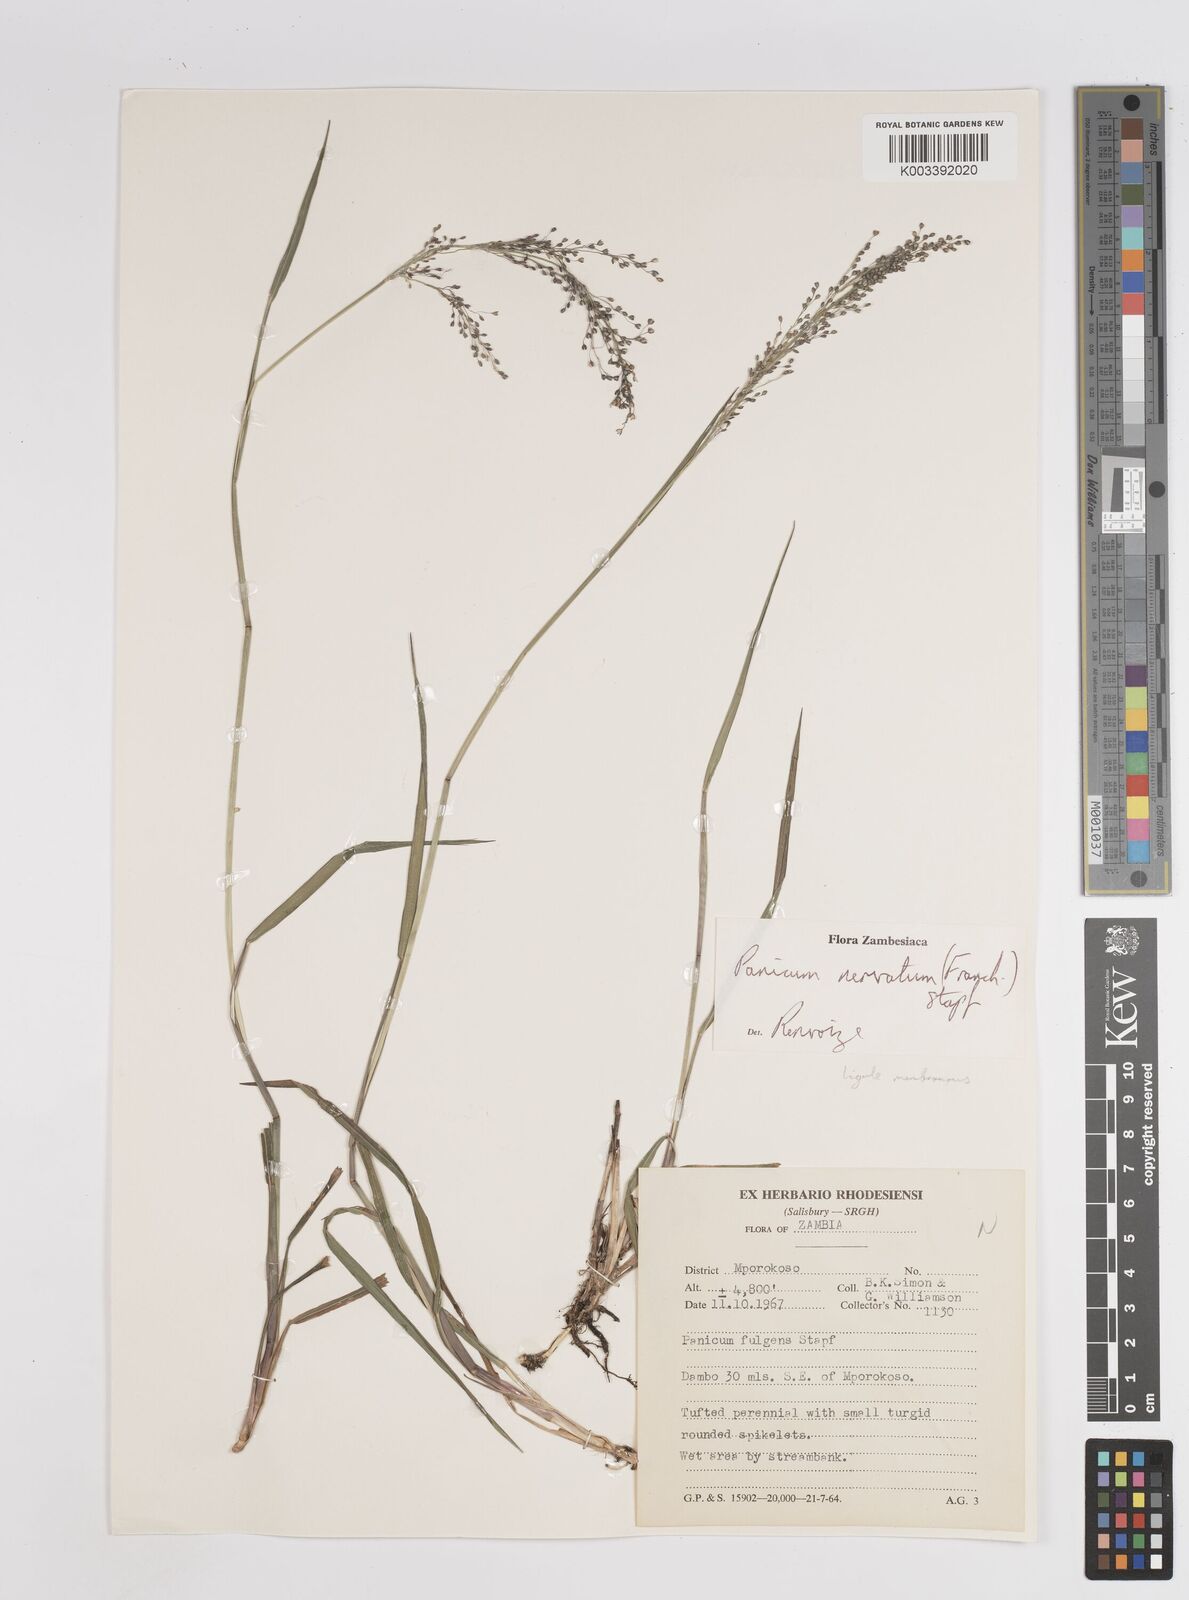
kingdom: Plantae
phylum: Tracheophyta
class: Liliopsida
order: Poales
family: Poaceae
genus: Trichanthecium
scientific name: Trichanthecium nervatum
